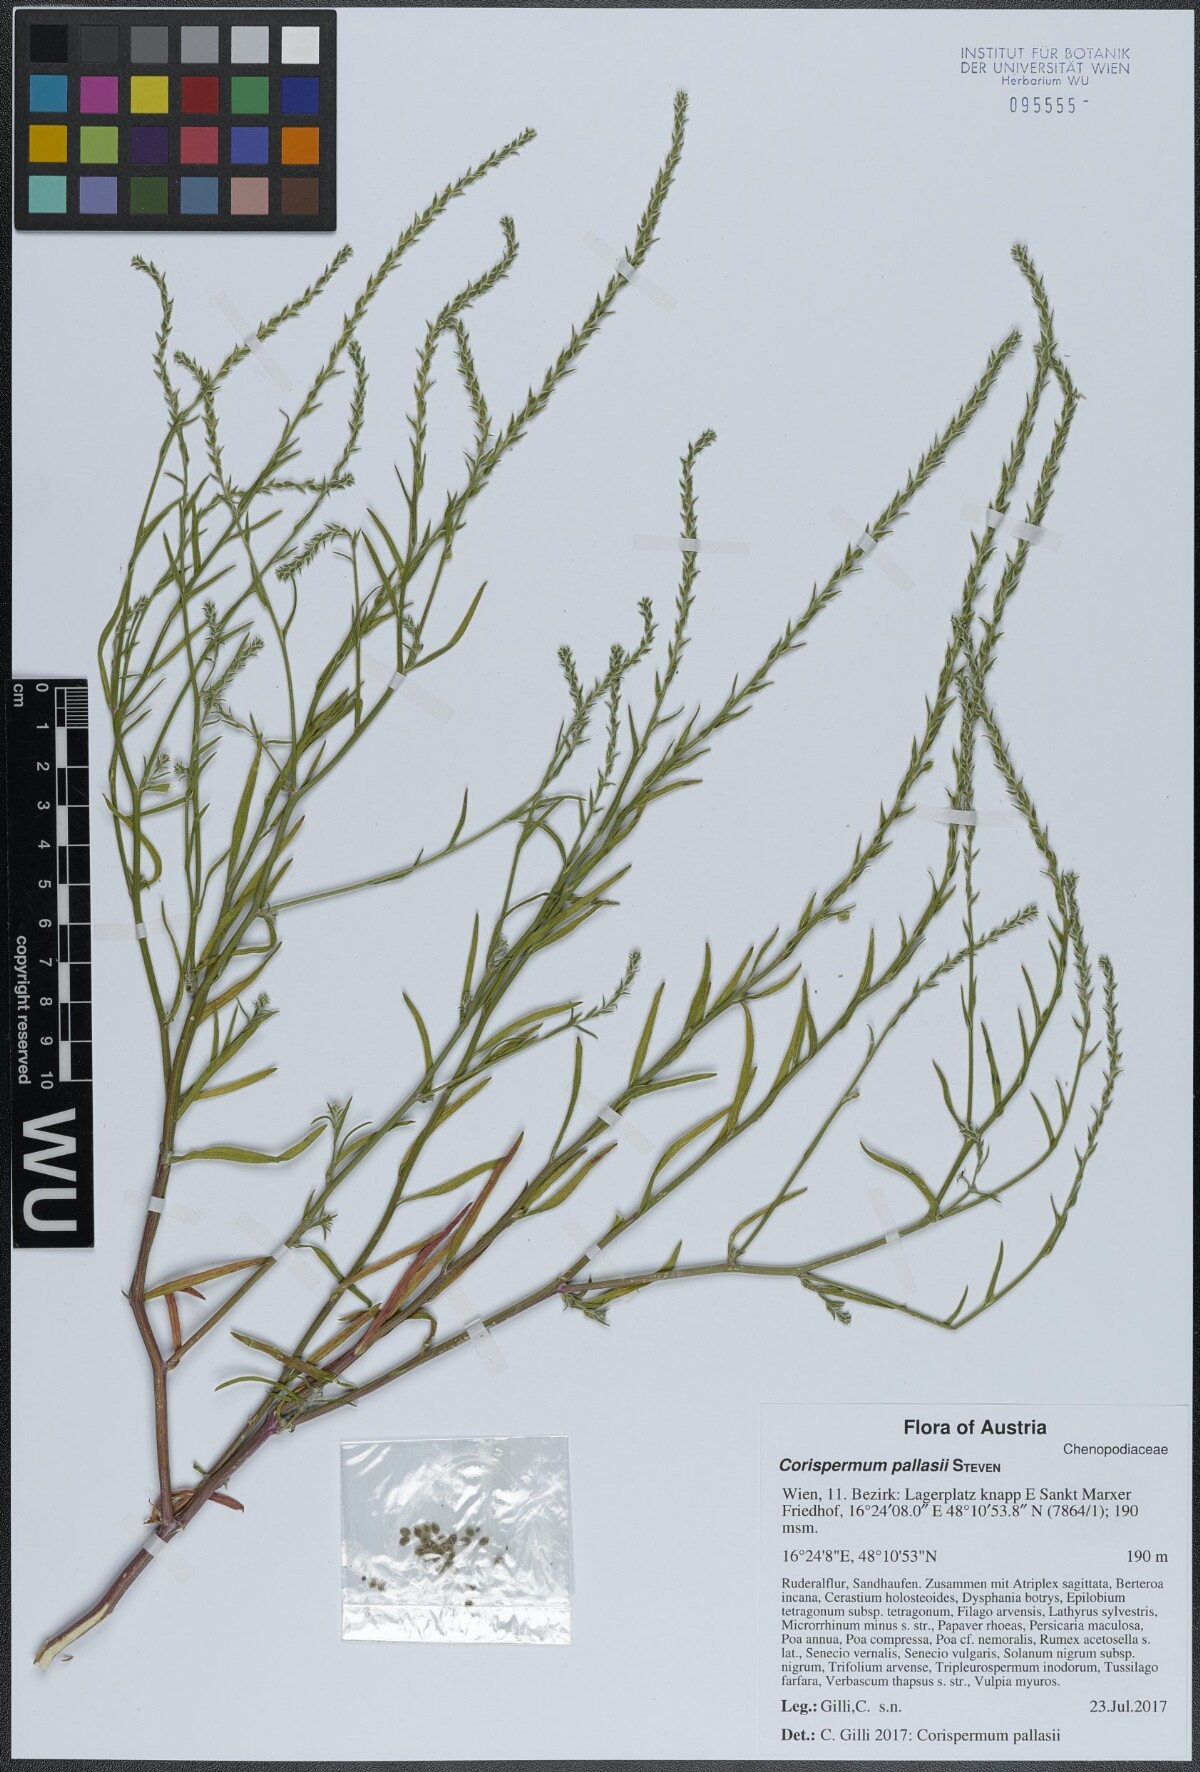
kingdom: Plantae
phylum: Tracheophyta
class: Magnoliopsida
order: Caryophyllales
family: Amaranthaceae
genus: Corispermum
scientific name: Corispermum pallasii
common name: Siberian bugseed
